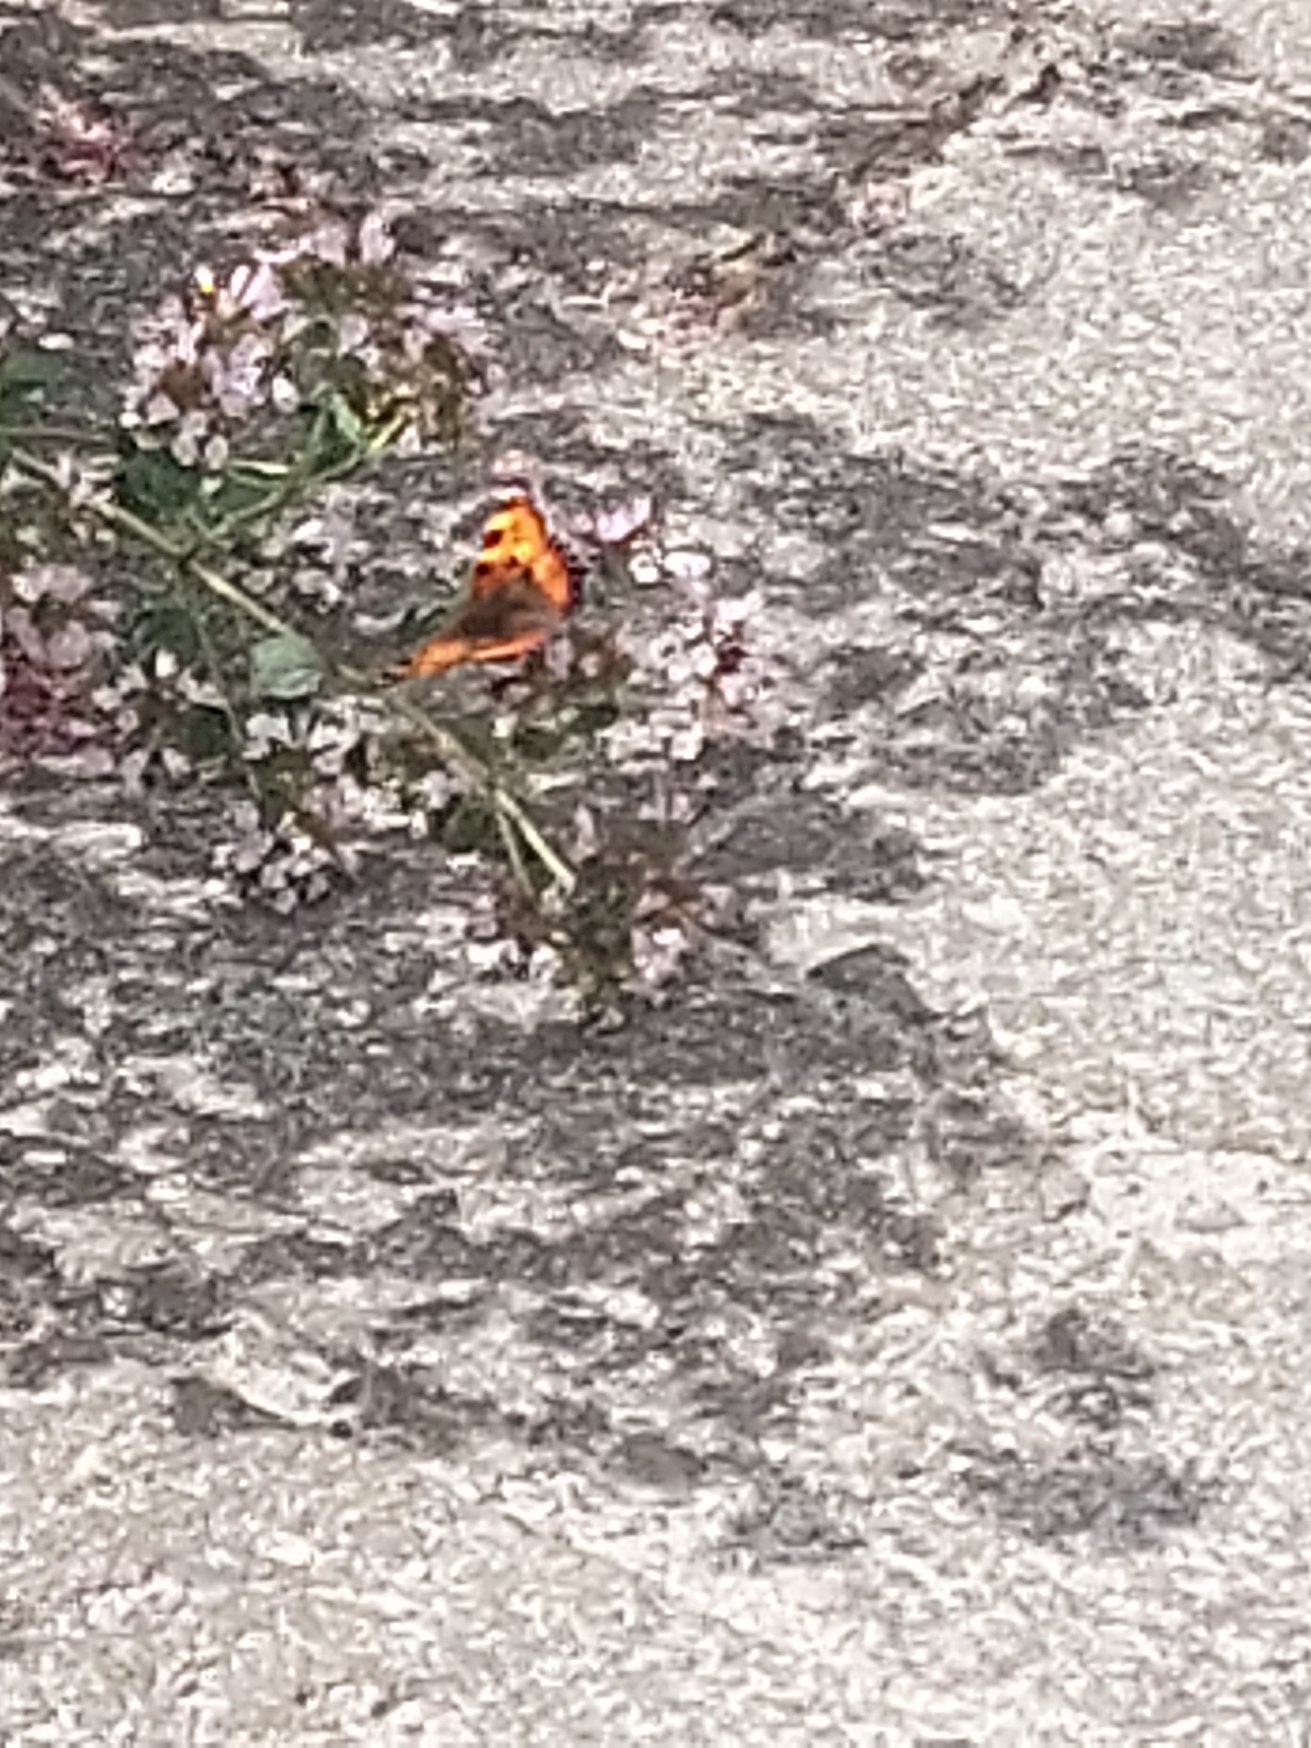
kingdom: Animalia
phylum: Arthropoda
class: Insecta
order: Lepidoptera
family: Nymphalidae
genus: Aglais
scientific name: Aglais urticae
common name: Nældens takvinge
